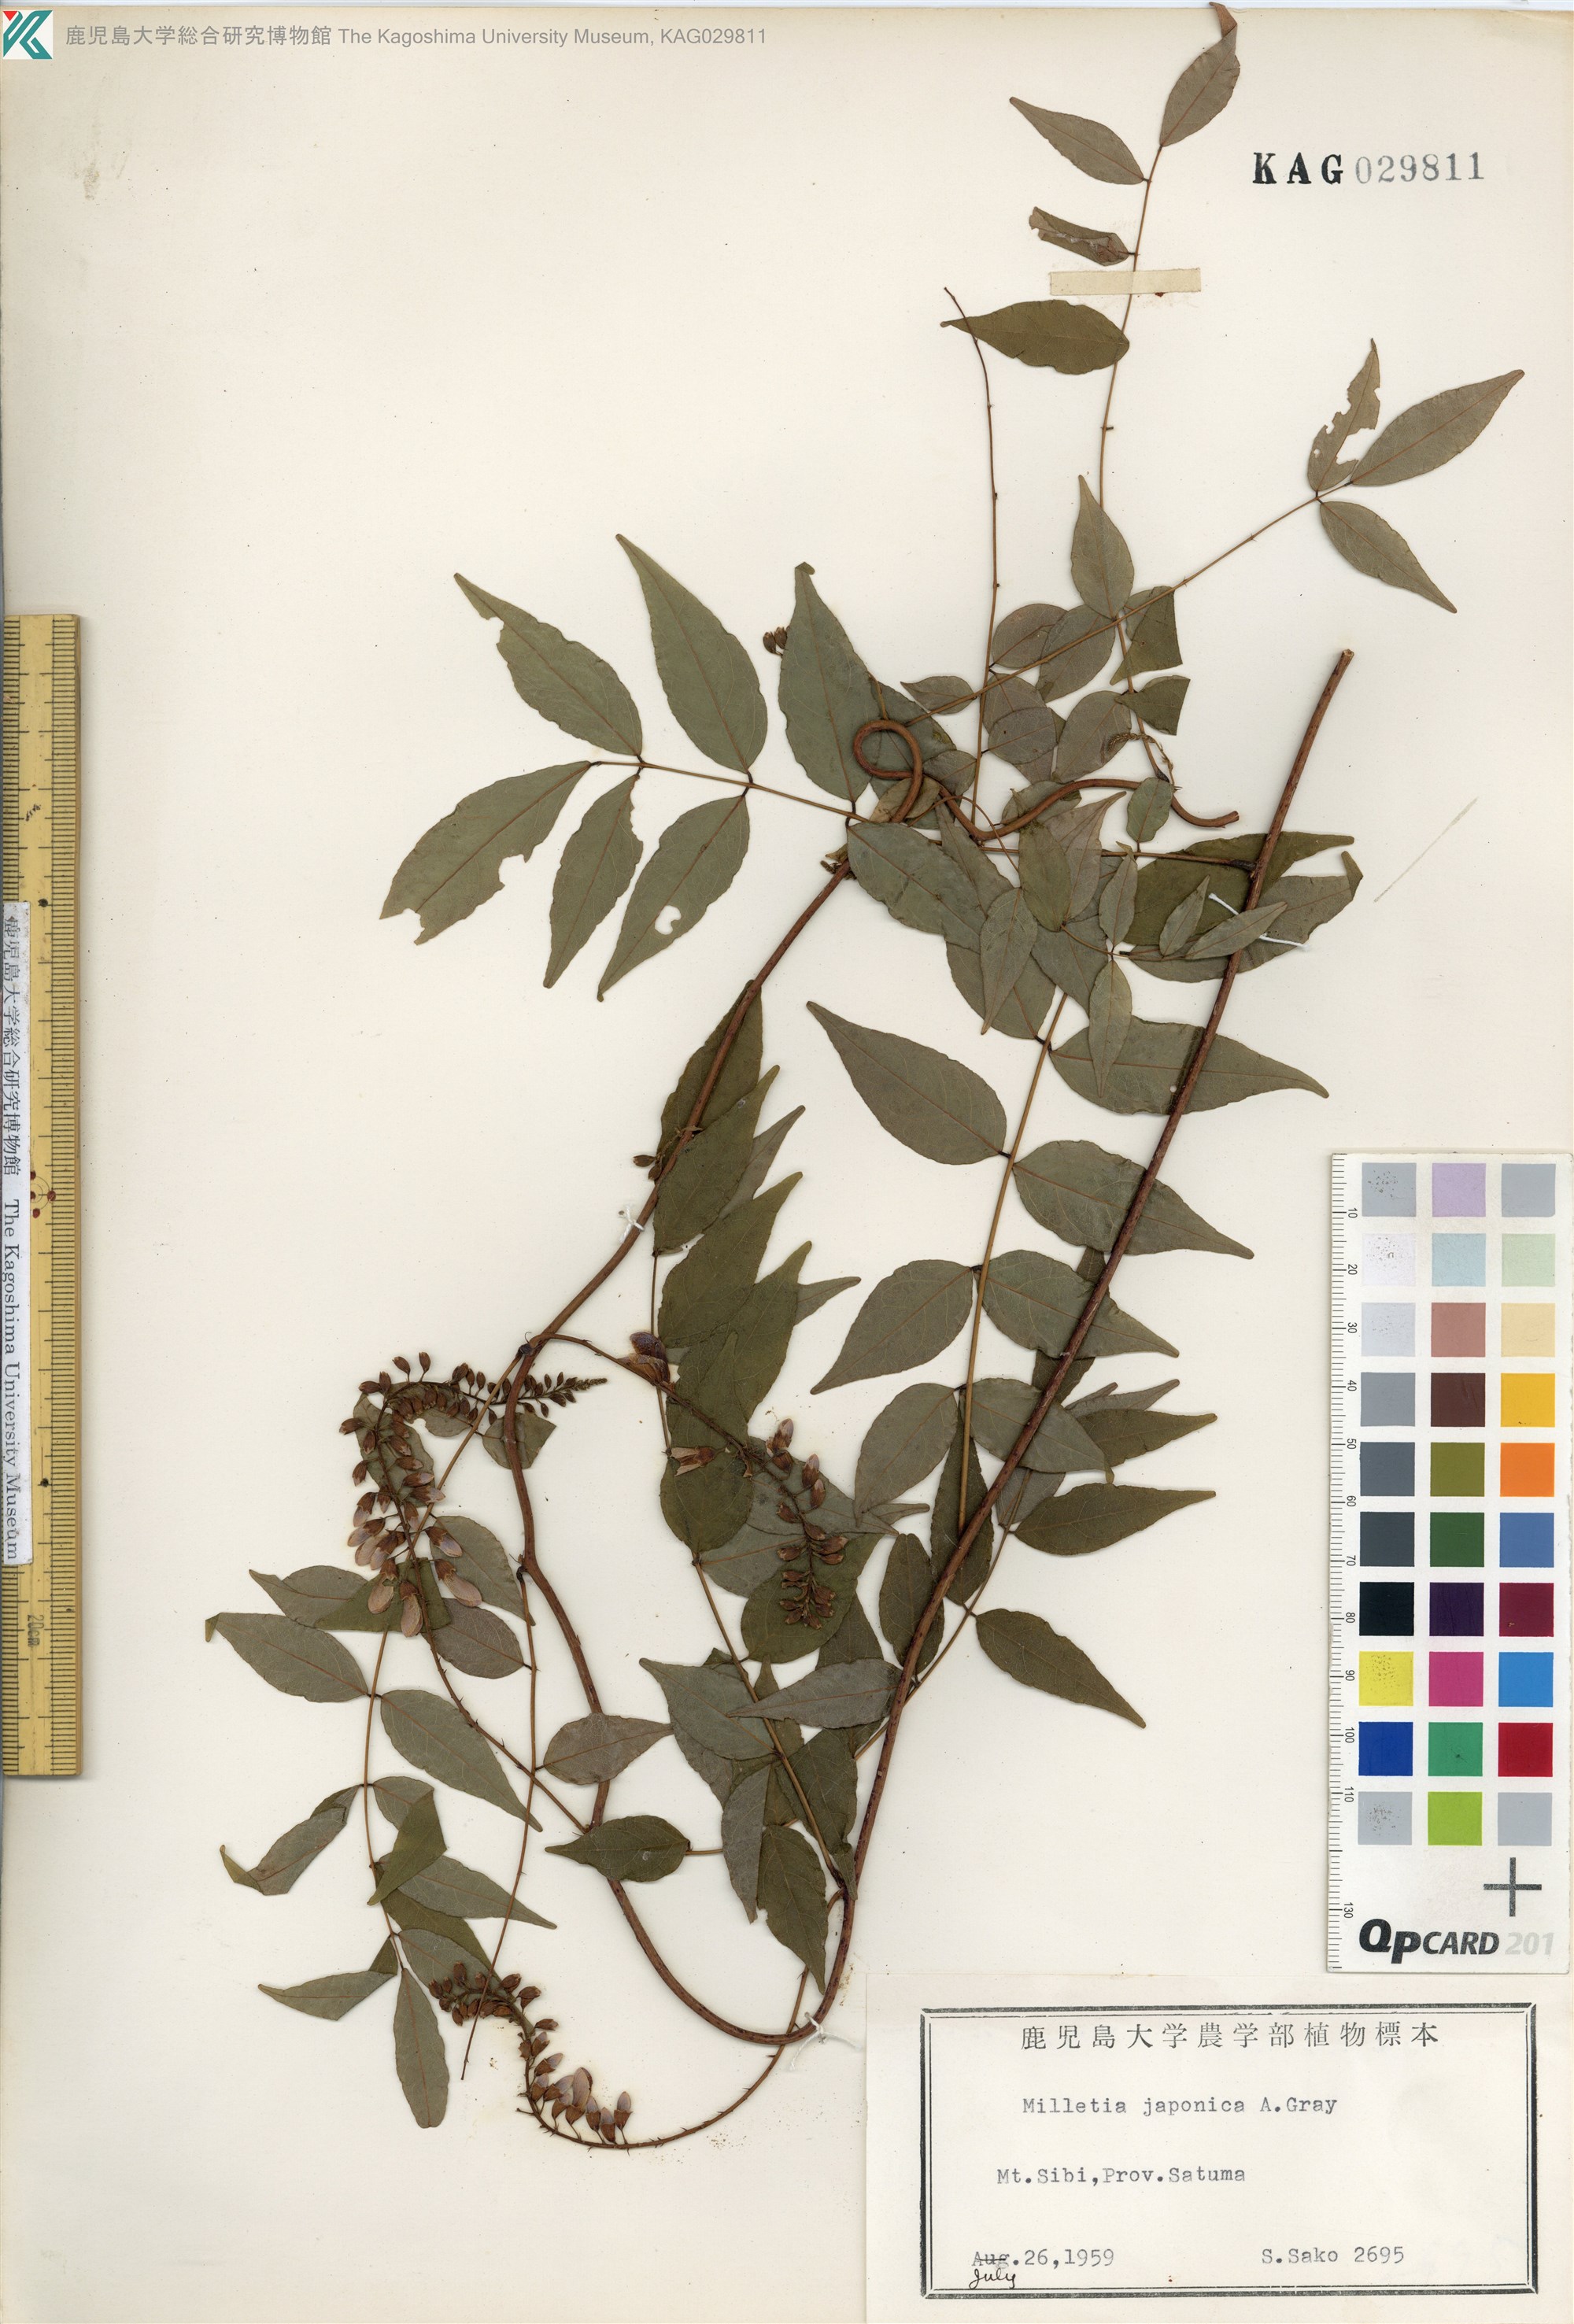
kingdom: Plantae
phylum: Tracheophyta
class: Magnoliopsida
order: Fabales
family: Fabaceae
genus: Wisteriopsis
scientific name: Wisteriopsis japonica
